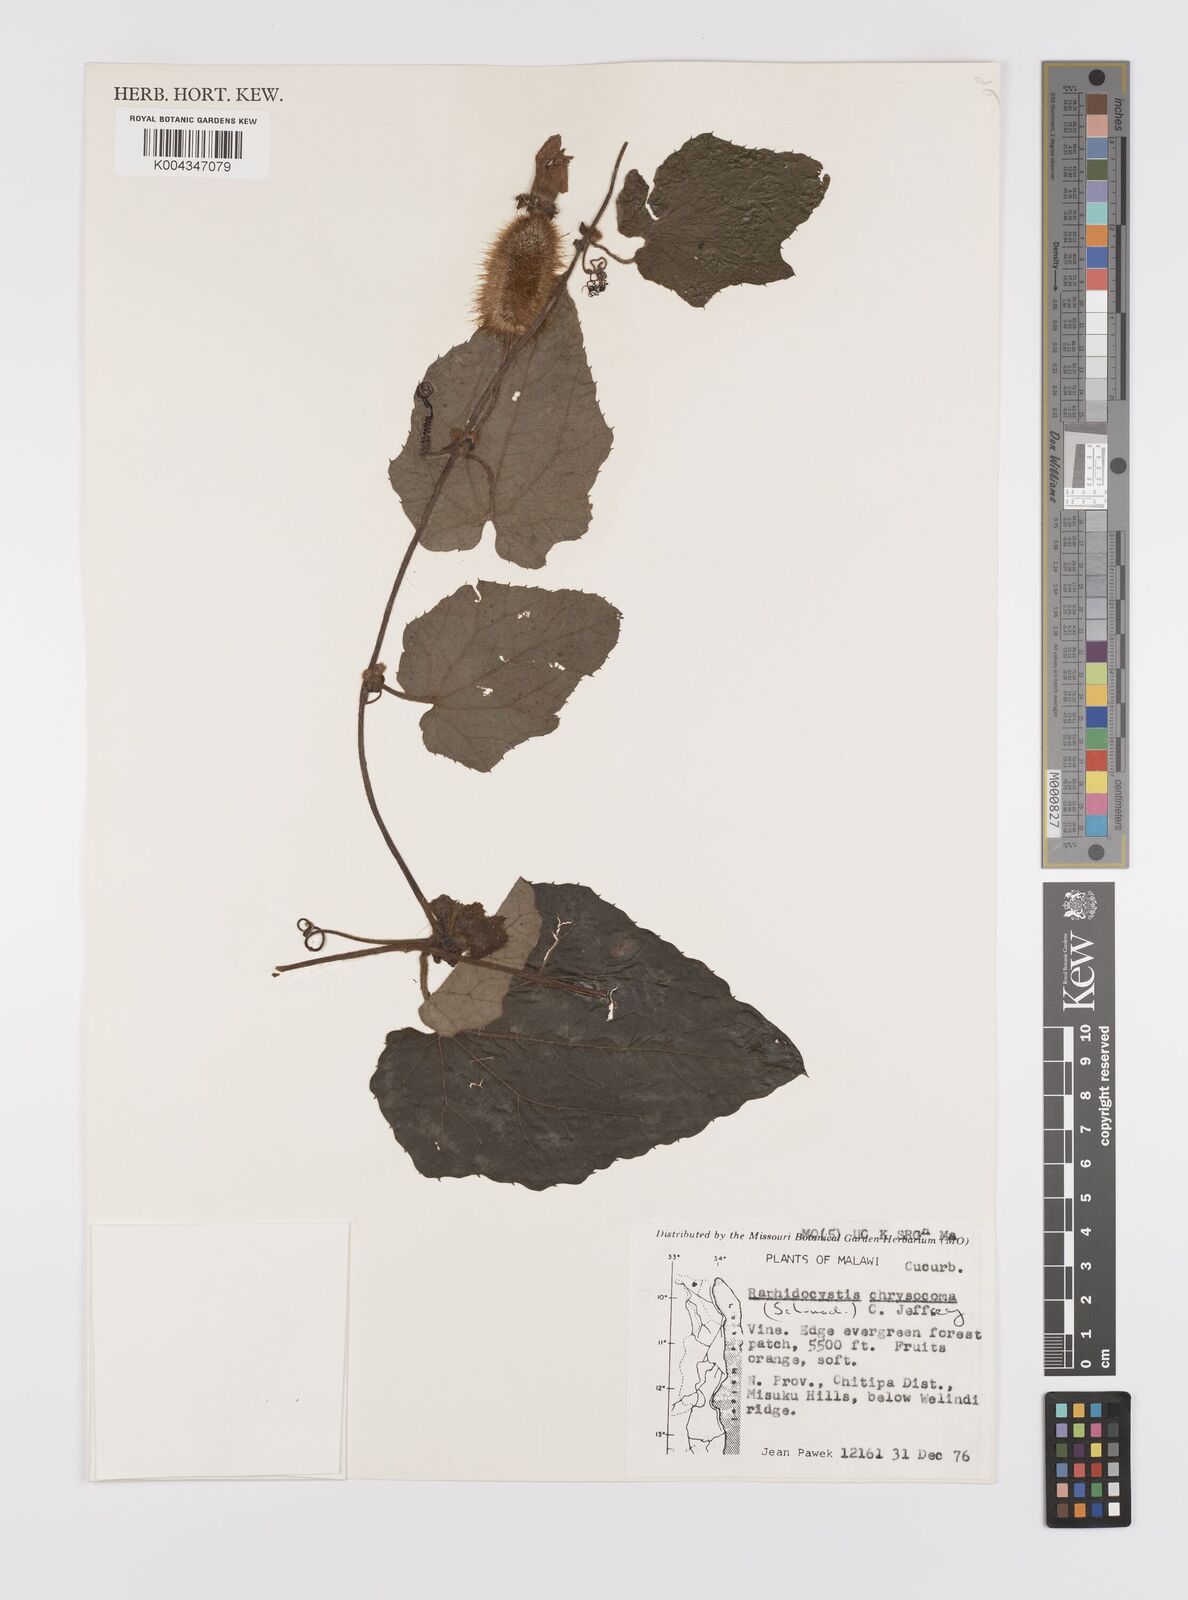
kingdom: Plantae
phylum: Tracheophyta
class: Magnoliopsida
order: Cucurbitales
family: Cucurbitaceae
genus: Raphidiocystis
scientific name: Raphidiocystis chrysocoma
